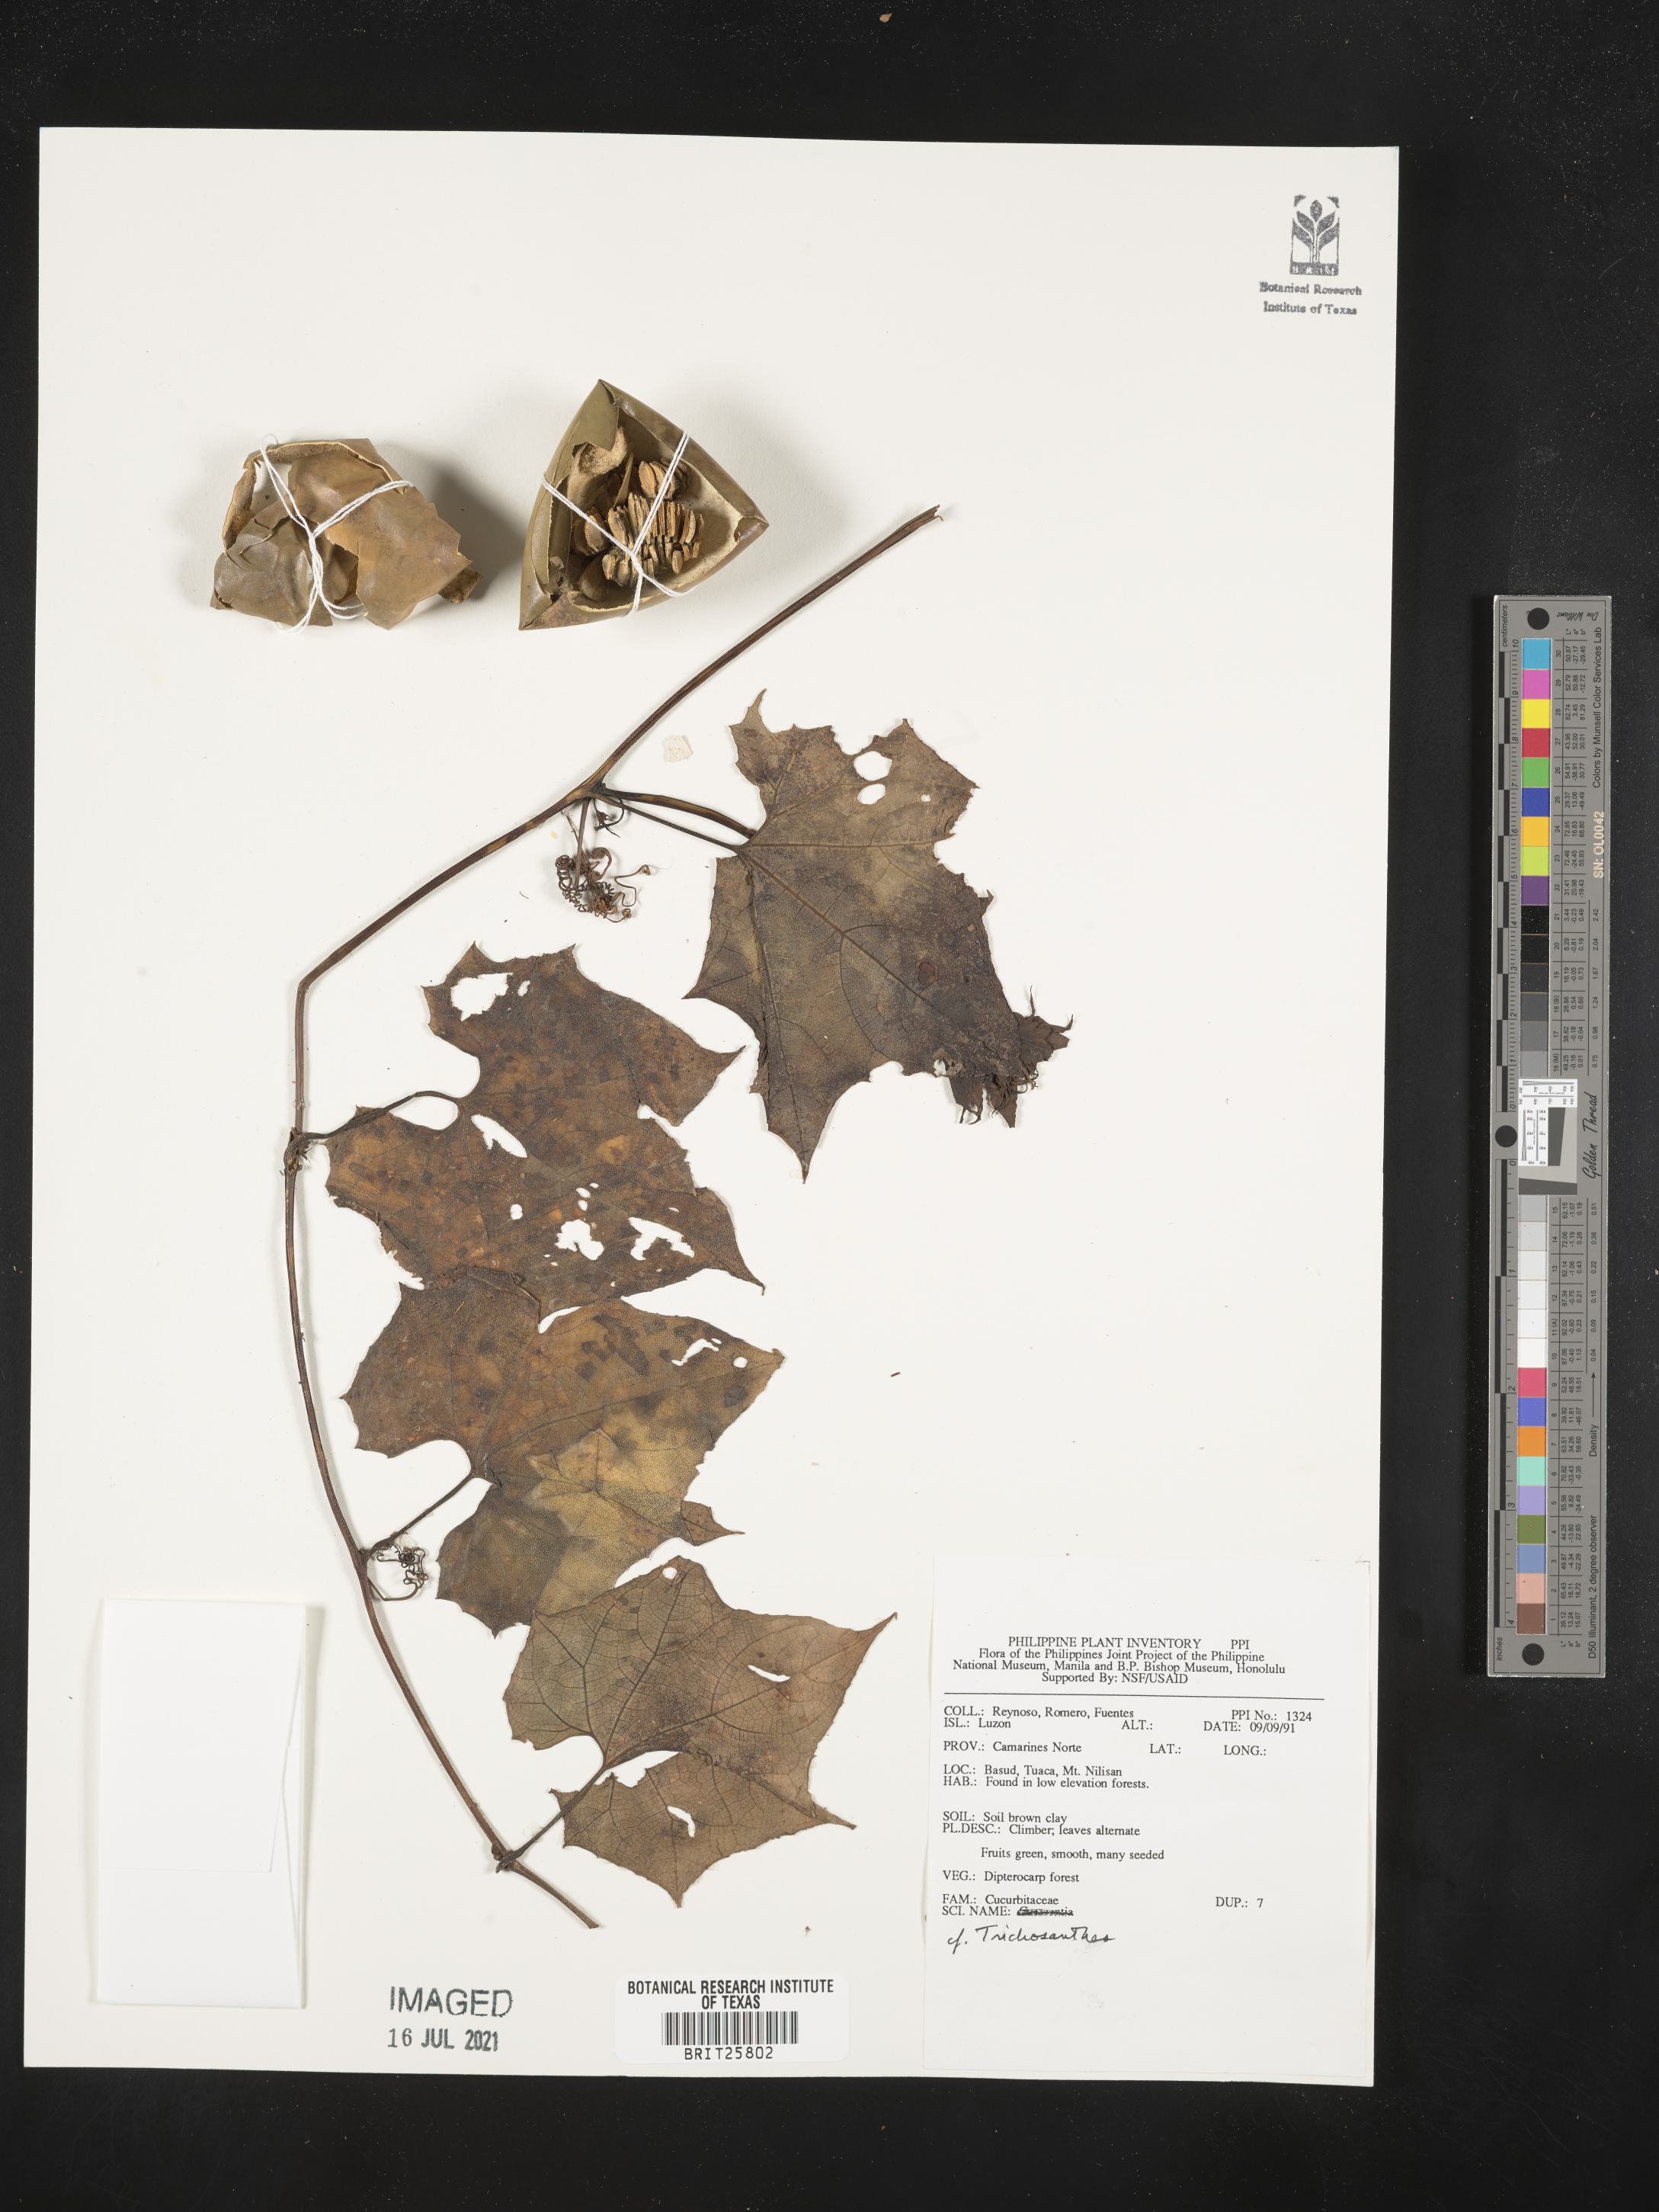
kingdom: Plantae
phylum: Tracheophyta
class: Magnoliopsida
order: Cucurbitales
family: Cucurbitaceae
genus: Trichosanthes
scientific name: Trichosanthes
